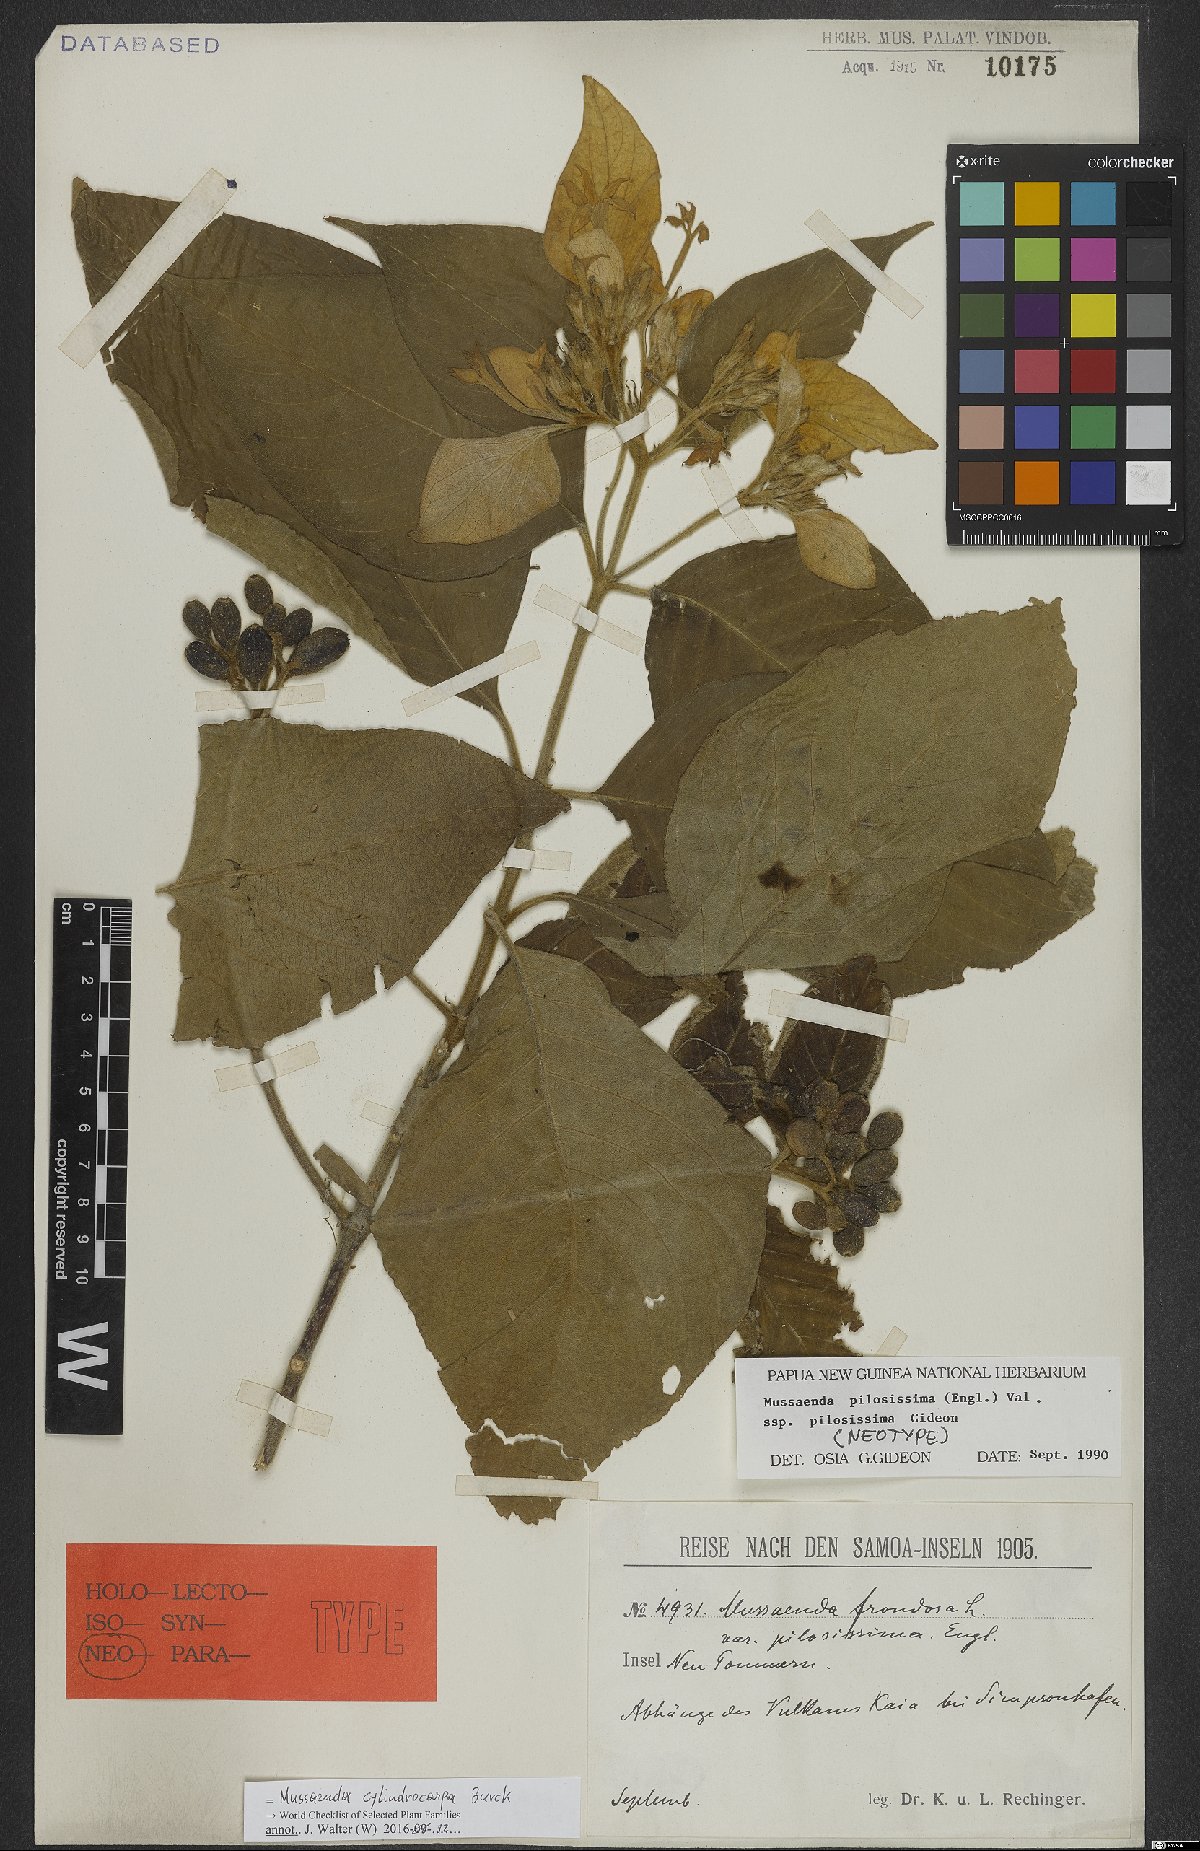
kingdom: Plantae
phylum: Tracheophyta
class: Magnoliopsida
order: Gentianales
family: Rubiaceae
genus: Mussaenda
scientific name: Mussaenda cylindrocarpa
